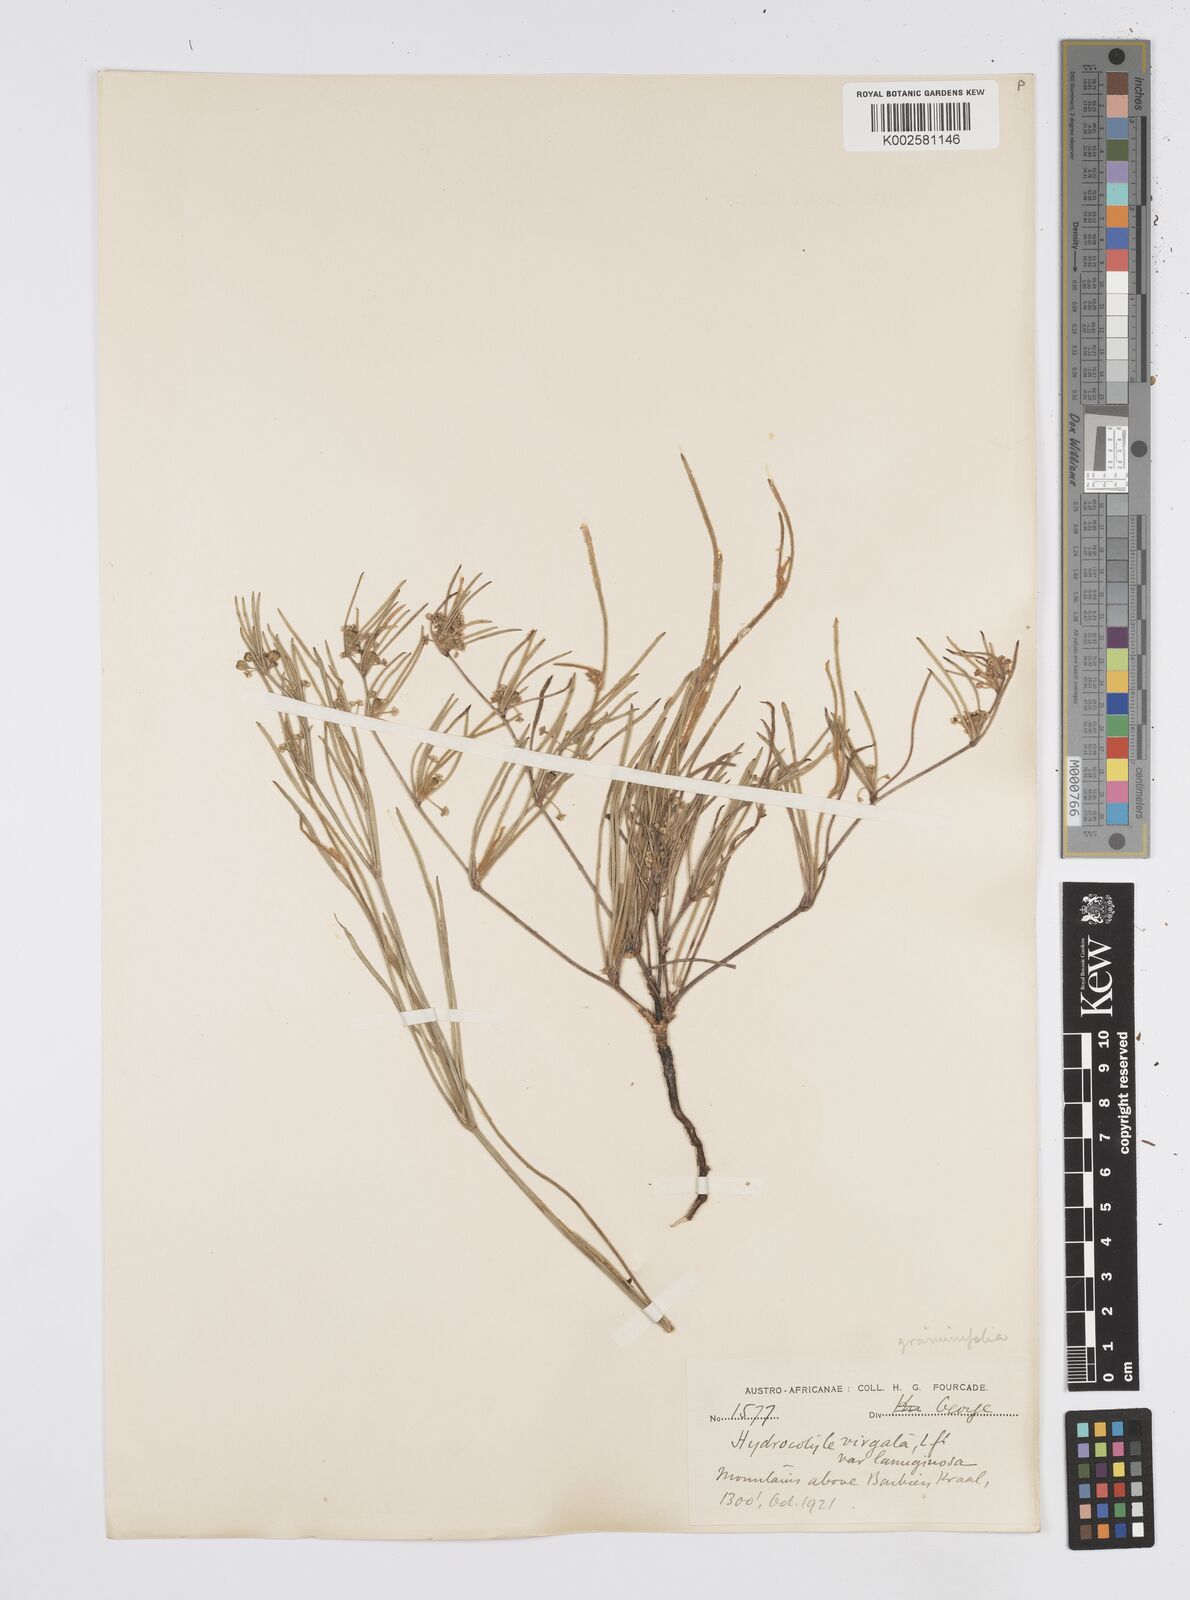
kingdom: Plantae
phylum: Tracheophyta
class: Magnoliopsida
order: Apiales
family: Apiaceae
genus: Centella
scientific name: Centella graminifolia
